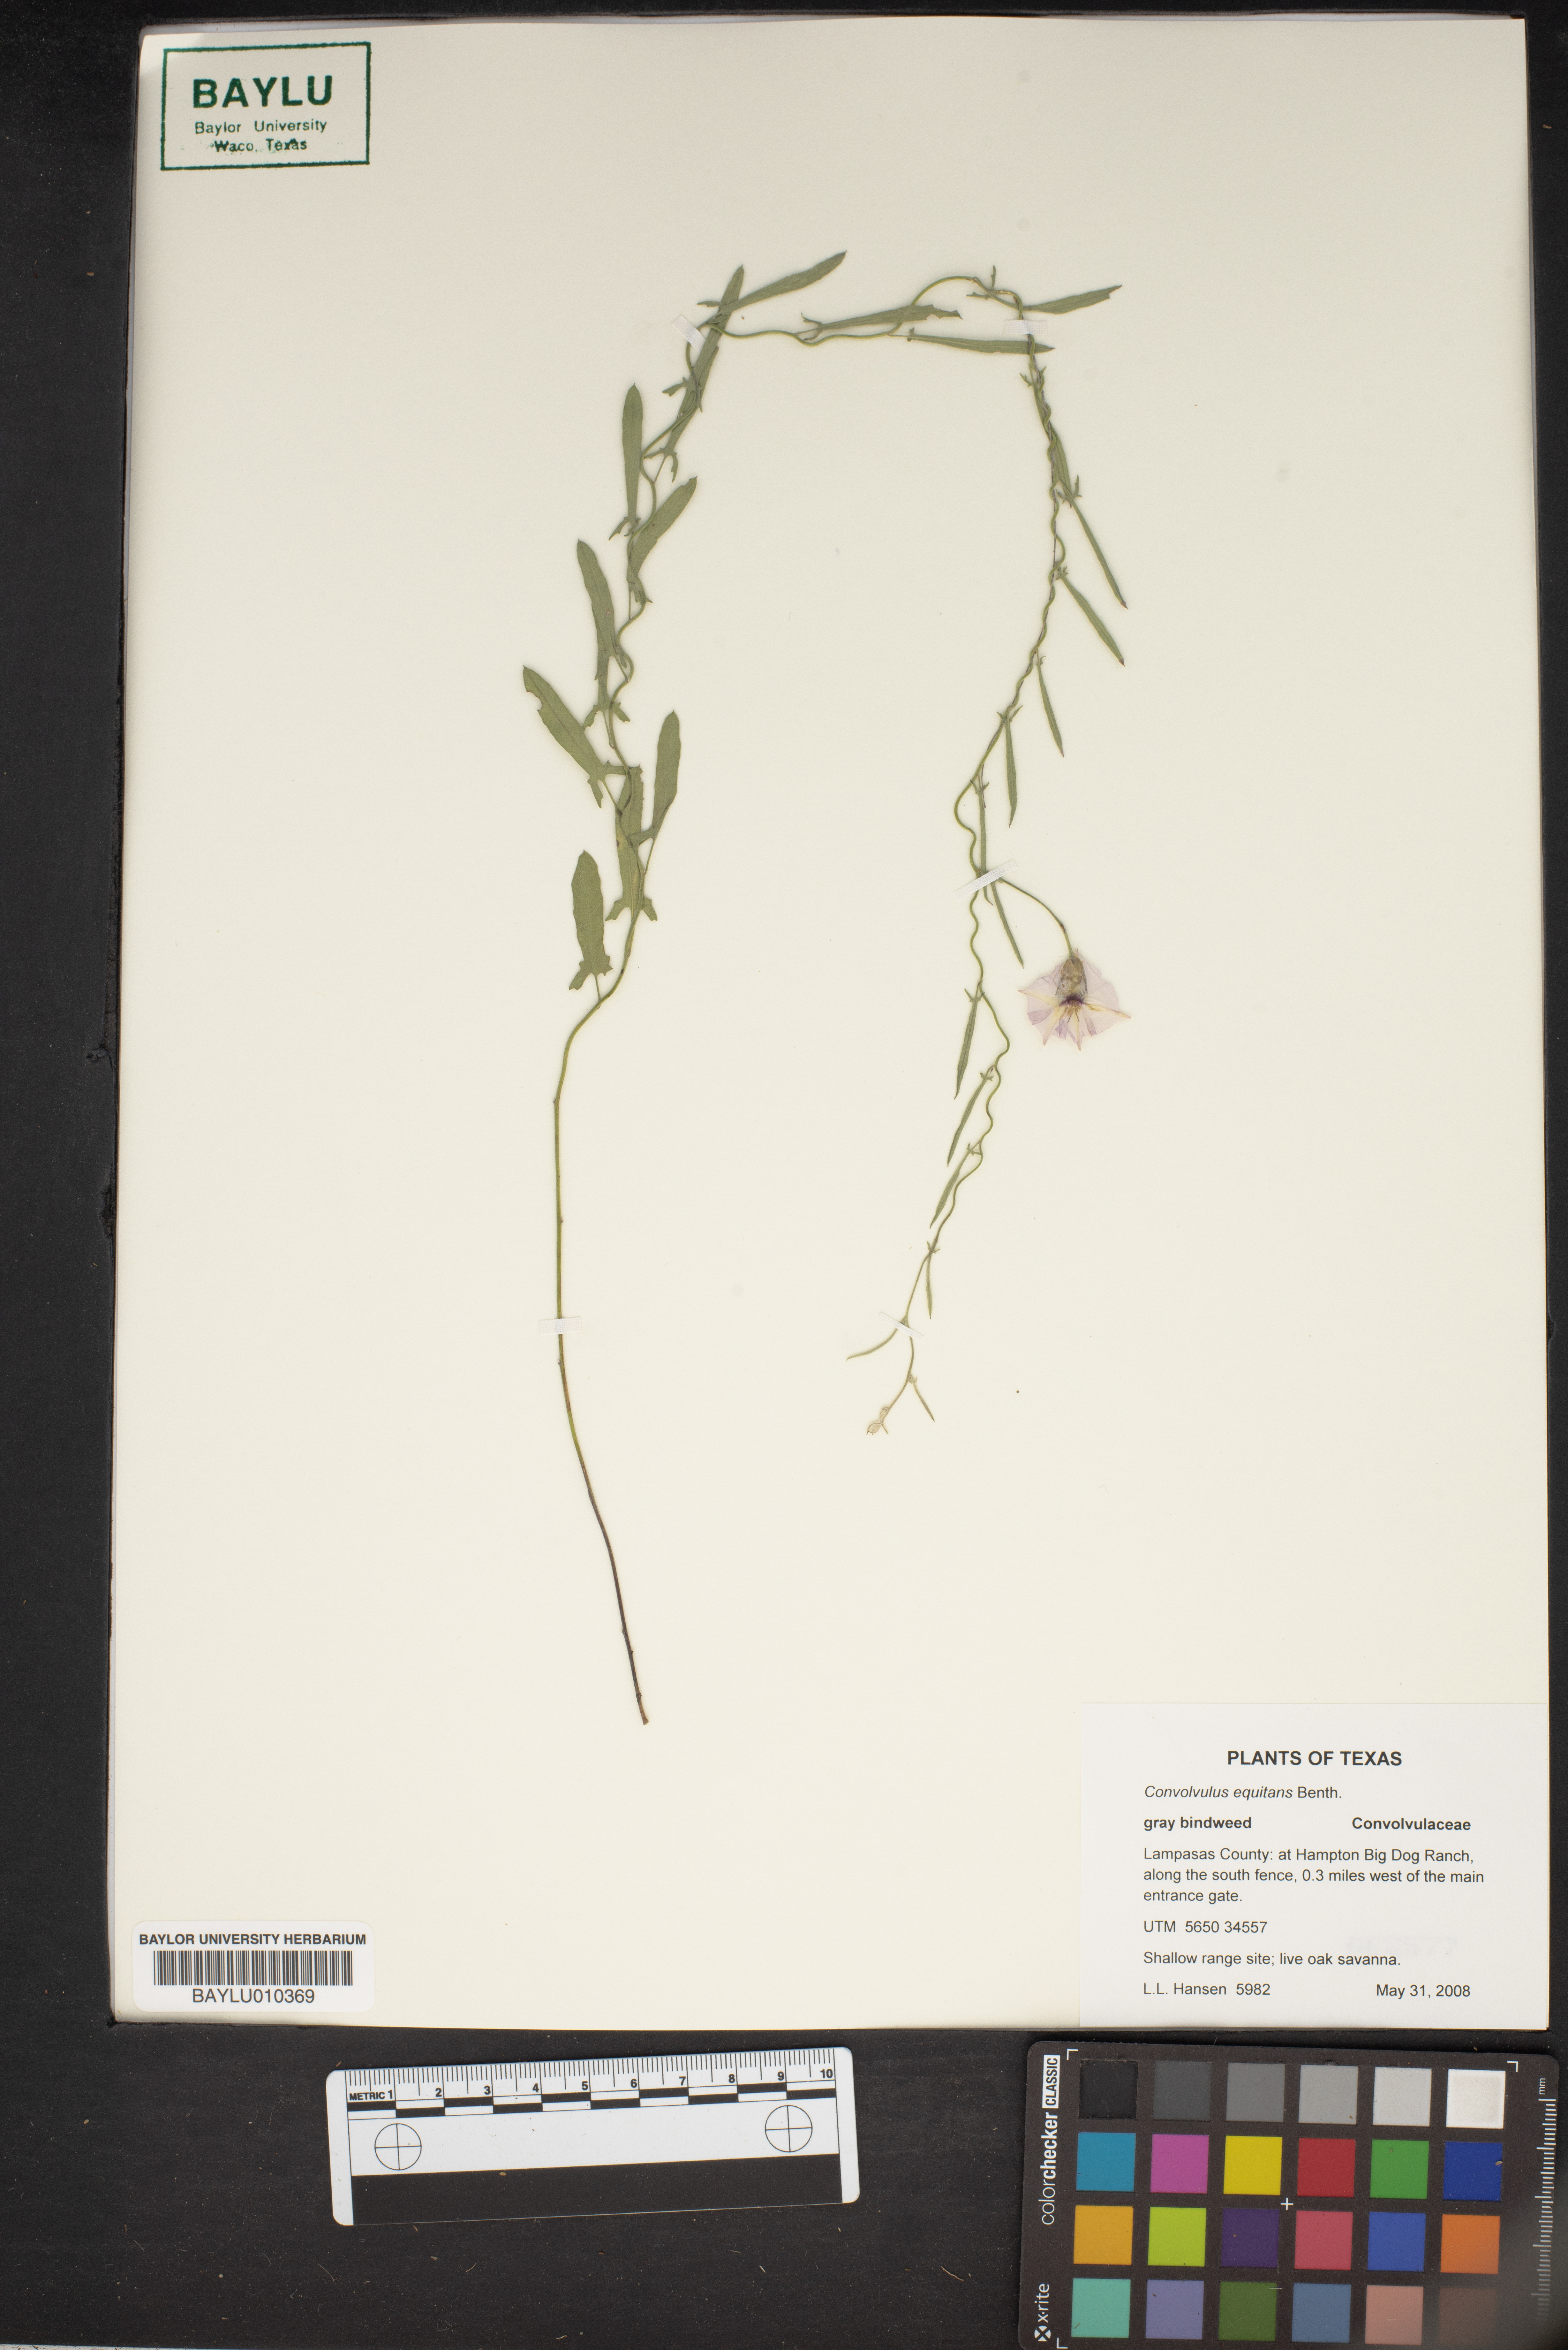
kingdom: Plantae
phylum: Tracheophyta
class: Magnoliopsida
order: Solanales
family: Convolvulaceae
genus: Convolvulus
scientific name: Convolvulus equitans
